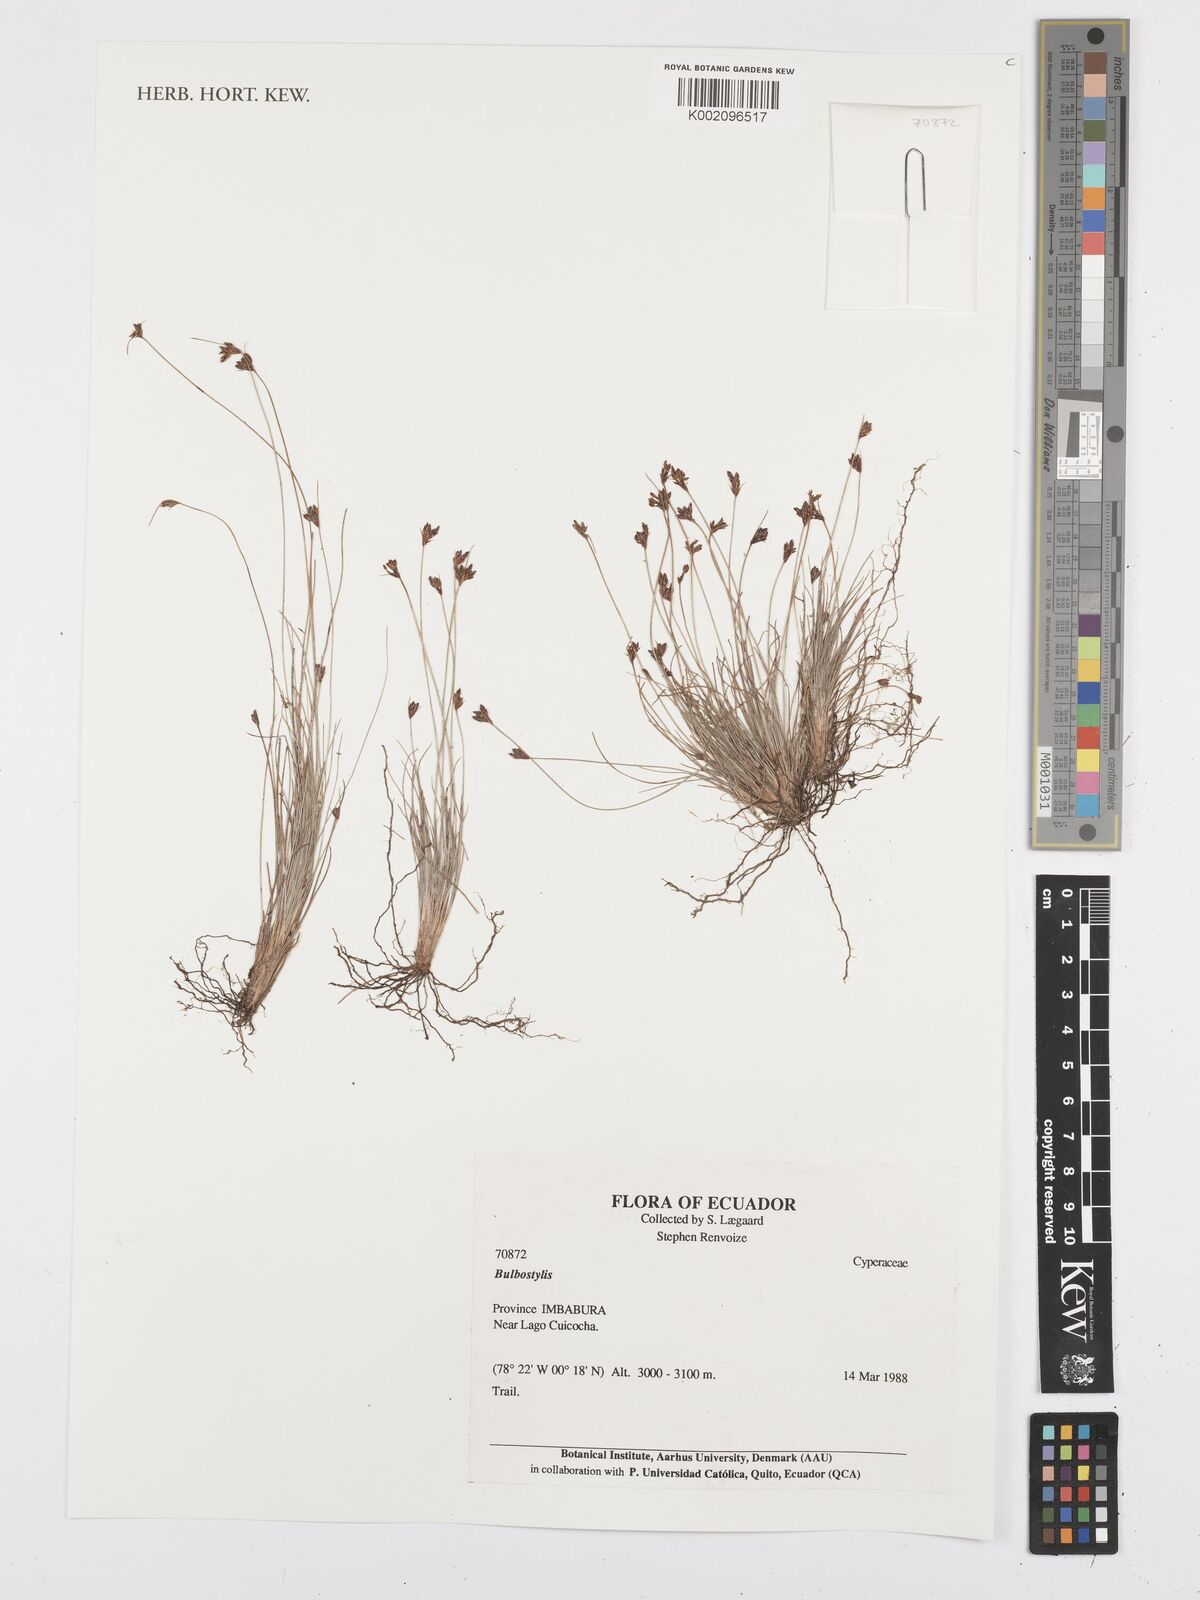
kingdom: Plantae
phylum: Tracheophyta
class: Liliopsida
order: Poales
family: Cyperaceae
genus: Bulbostylis
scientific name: Bulbostylis
